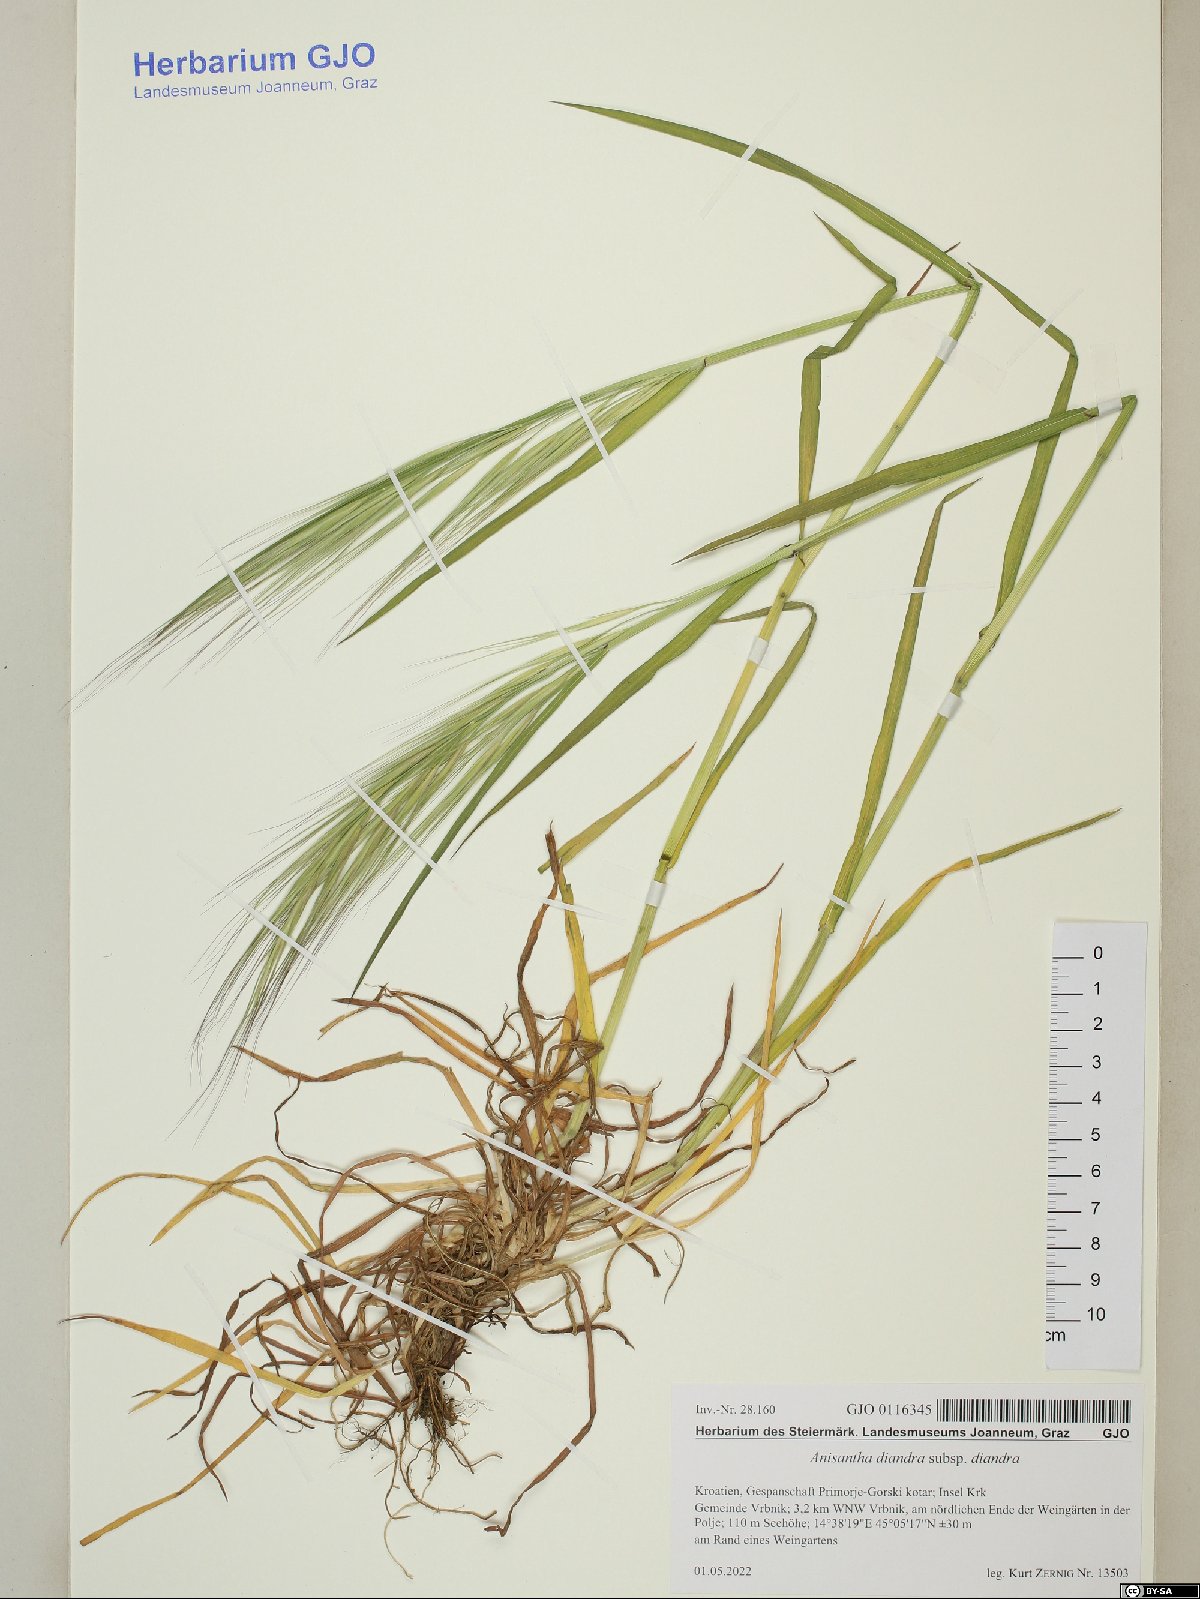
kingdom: Plantae
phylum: Tracheophyta
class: Liliopsida
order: Poales
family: Poaceae
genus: Bromus
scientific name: Bromus diandrus
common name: Ripgut brome
